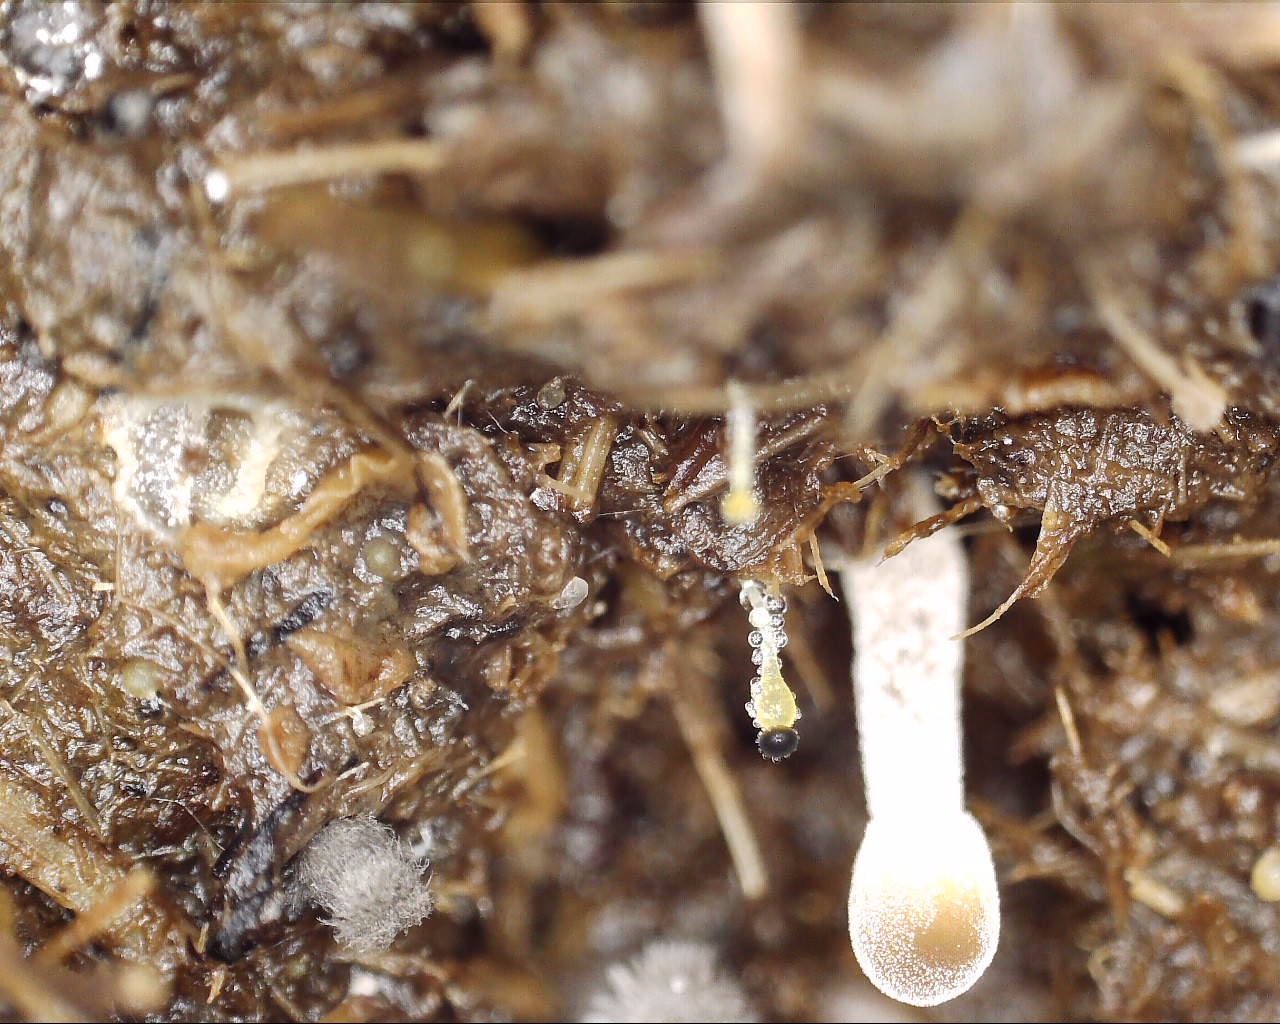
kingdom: Fungi
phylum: Mucoromycota
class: Mucoromycetes
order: Mucorales
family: Pilobolaceae
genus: Pilobolus
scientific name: Pilobolus
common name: boldkaster
